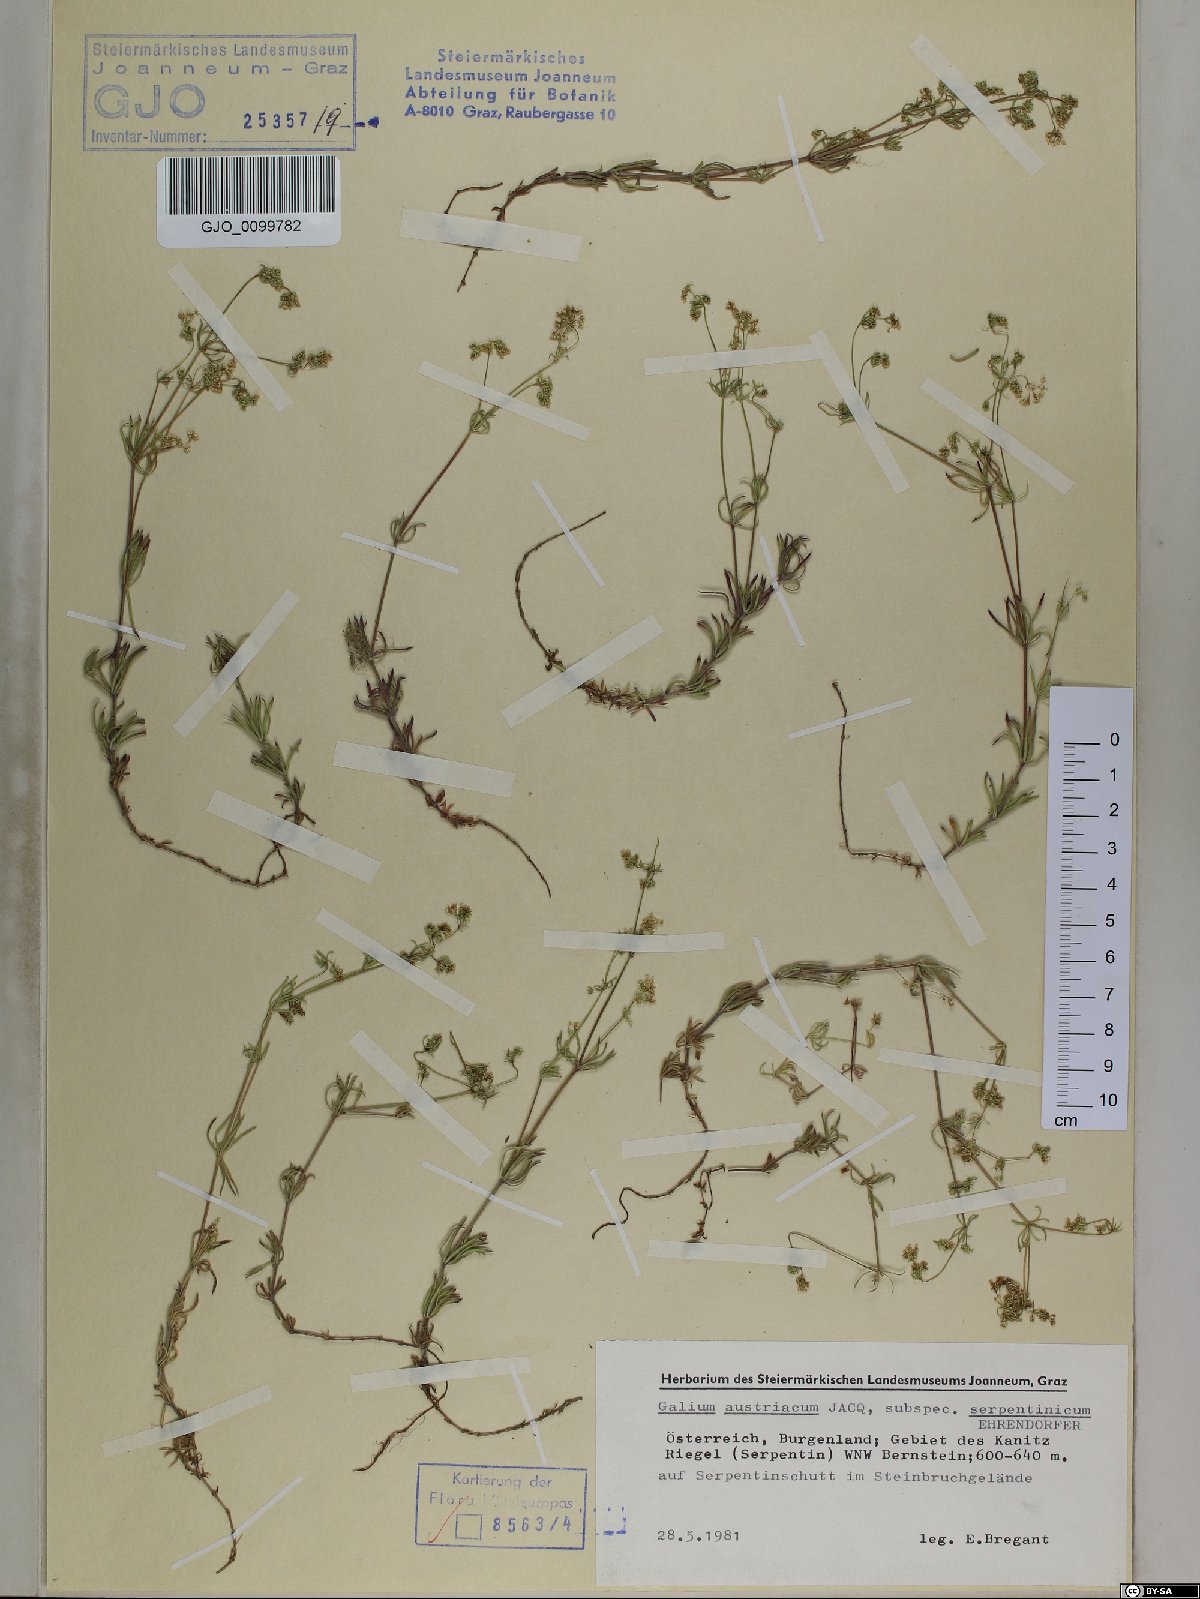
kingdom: Plantae
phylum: Tracheophyta
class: Magnoliopsida
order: Gentianales
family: Rubiaceae
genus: Galium
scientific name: Galium austriacum
